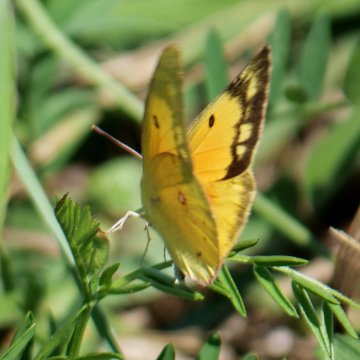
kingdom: Animalia
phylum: Arthropoda
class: Insecta
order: Lepidoptera
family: Pieridae
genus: Colias
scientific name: Colias eurytheme
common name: Orange Sulphur
